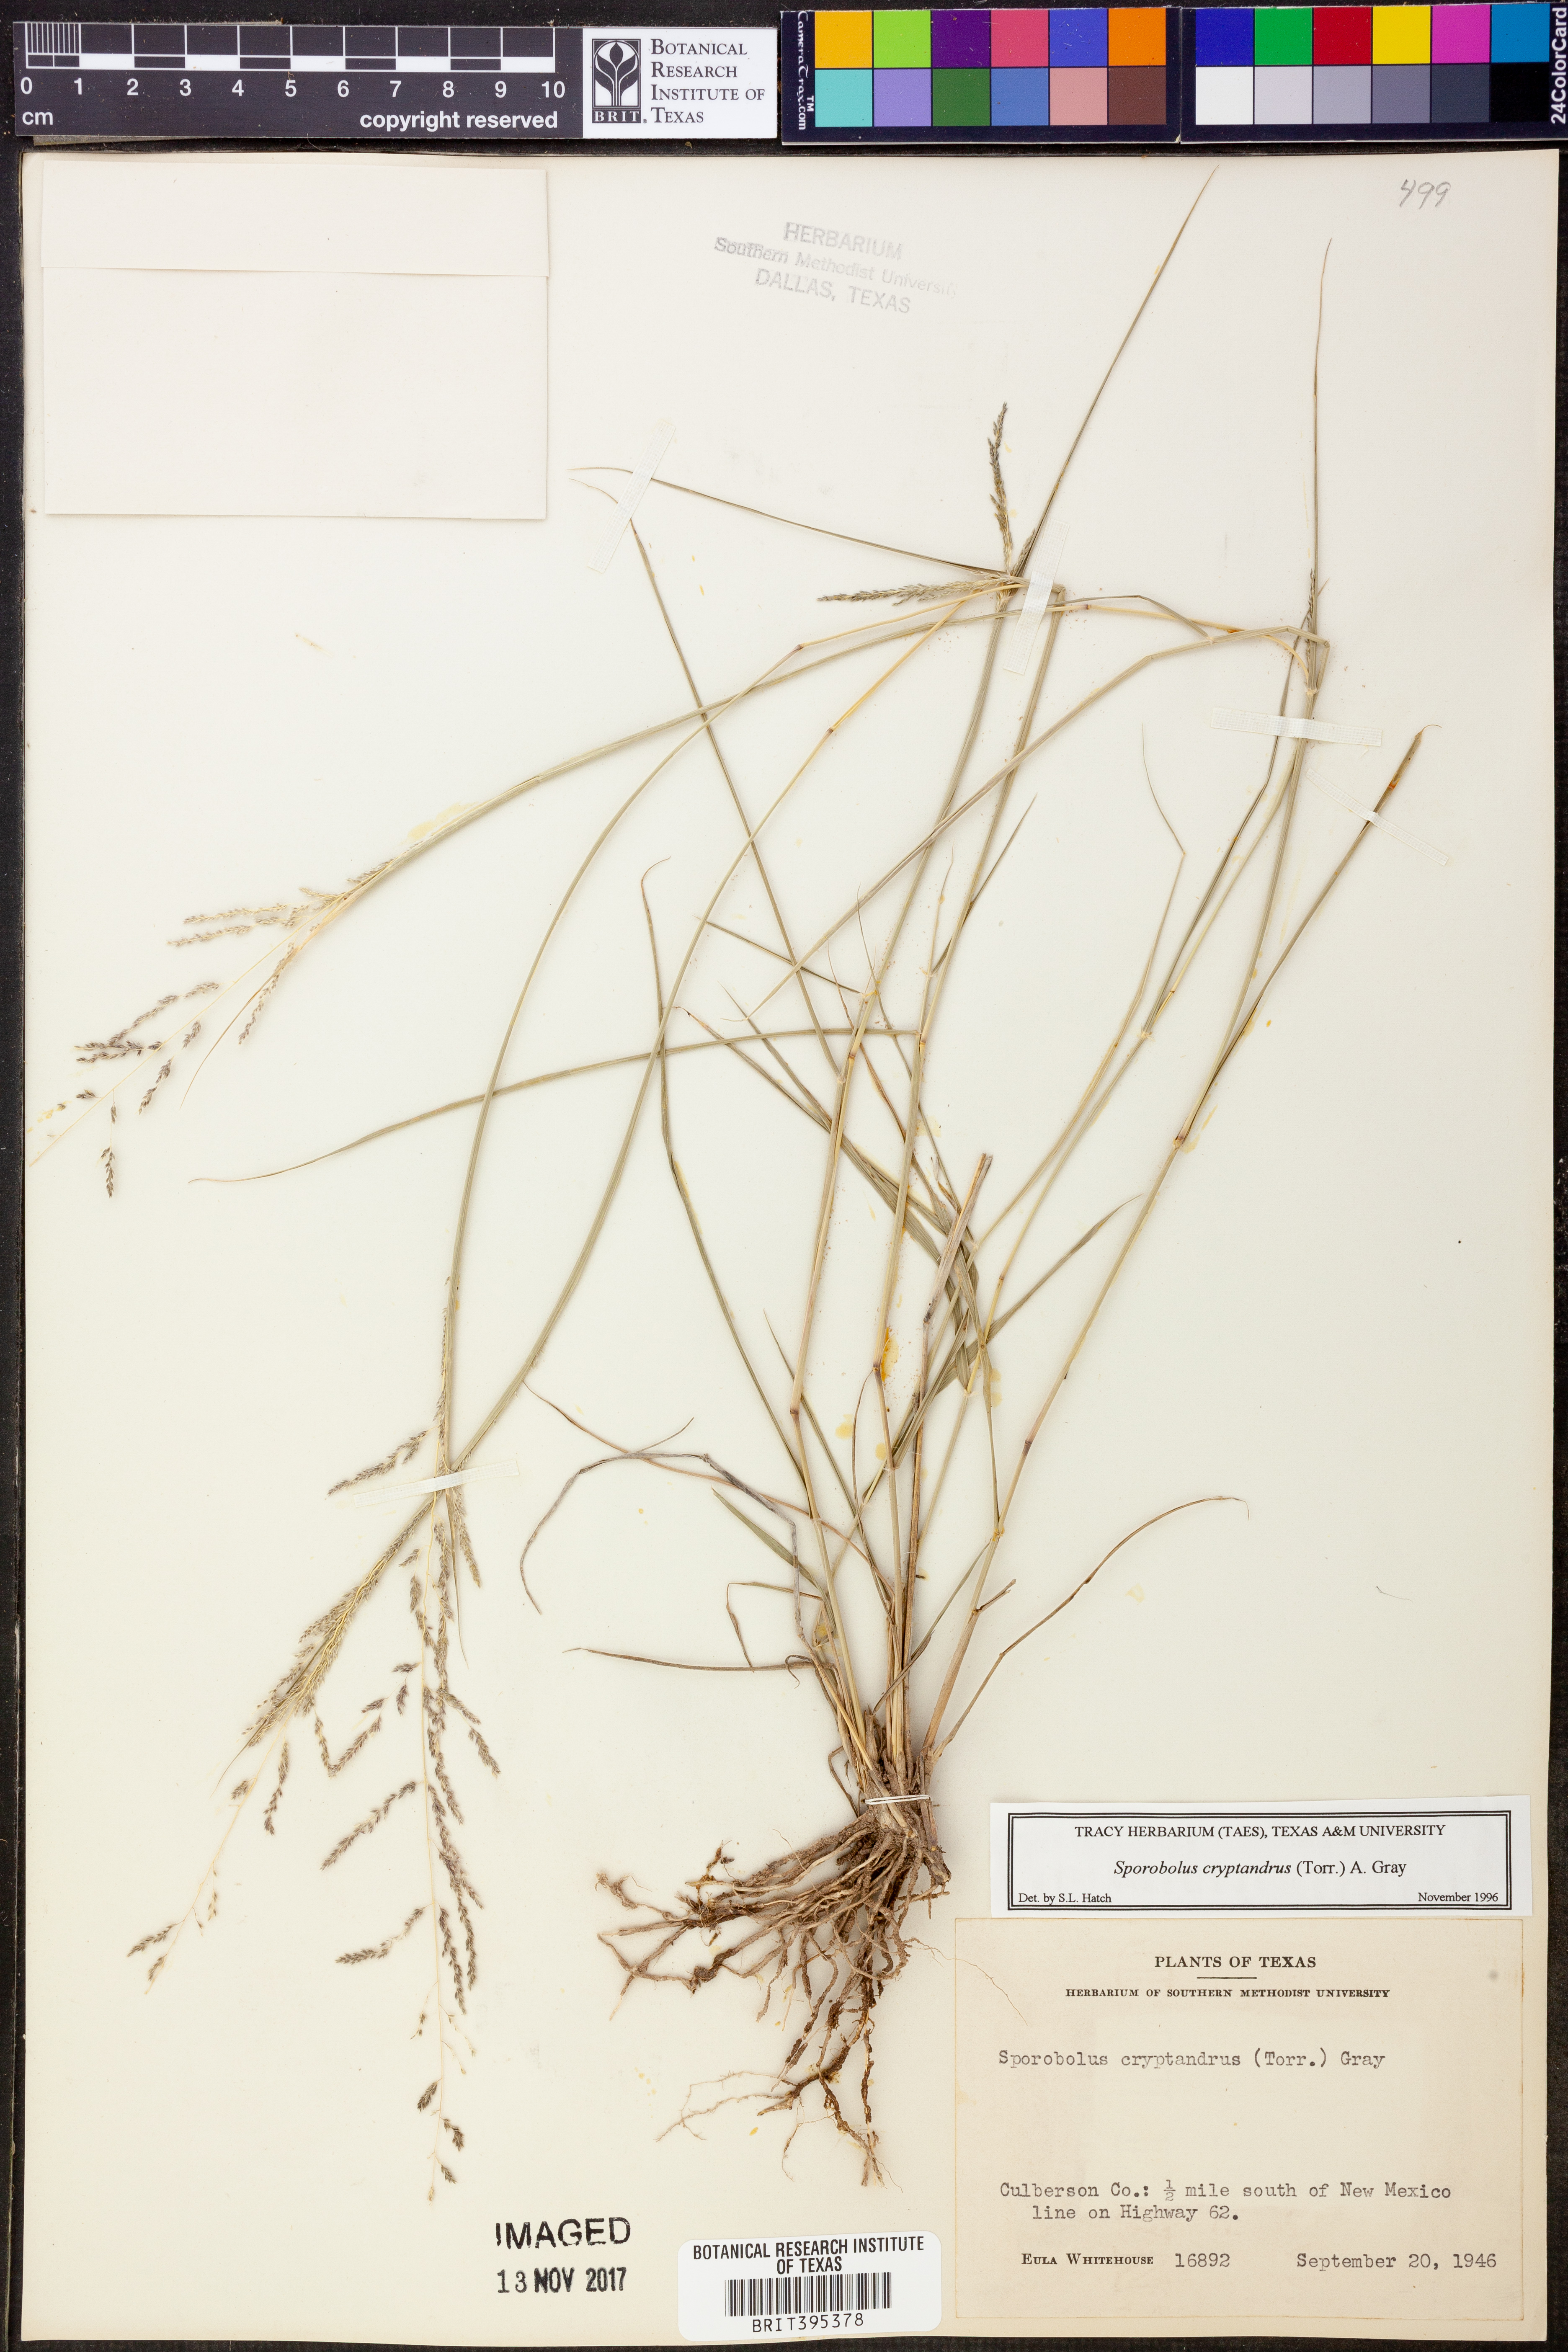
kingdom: Plantae
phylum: Tracheophyta
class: Liliopsida
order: Poales
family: Poaceae
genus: Sporobolus
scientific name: Sporobolus cryptandrus
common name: Sand dropseed
